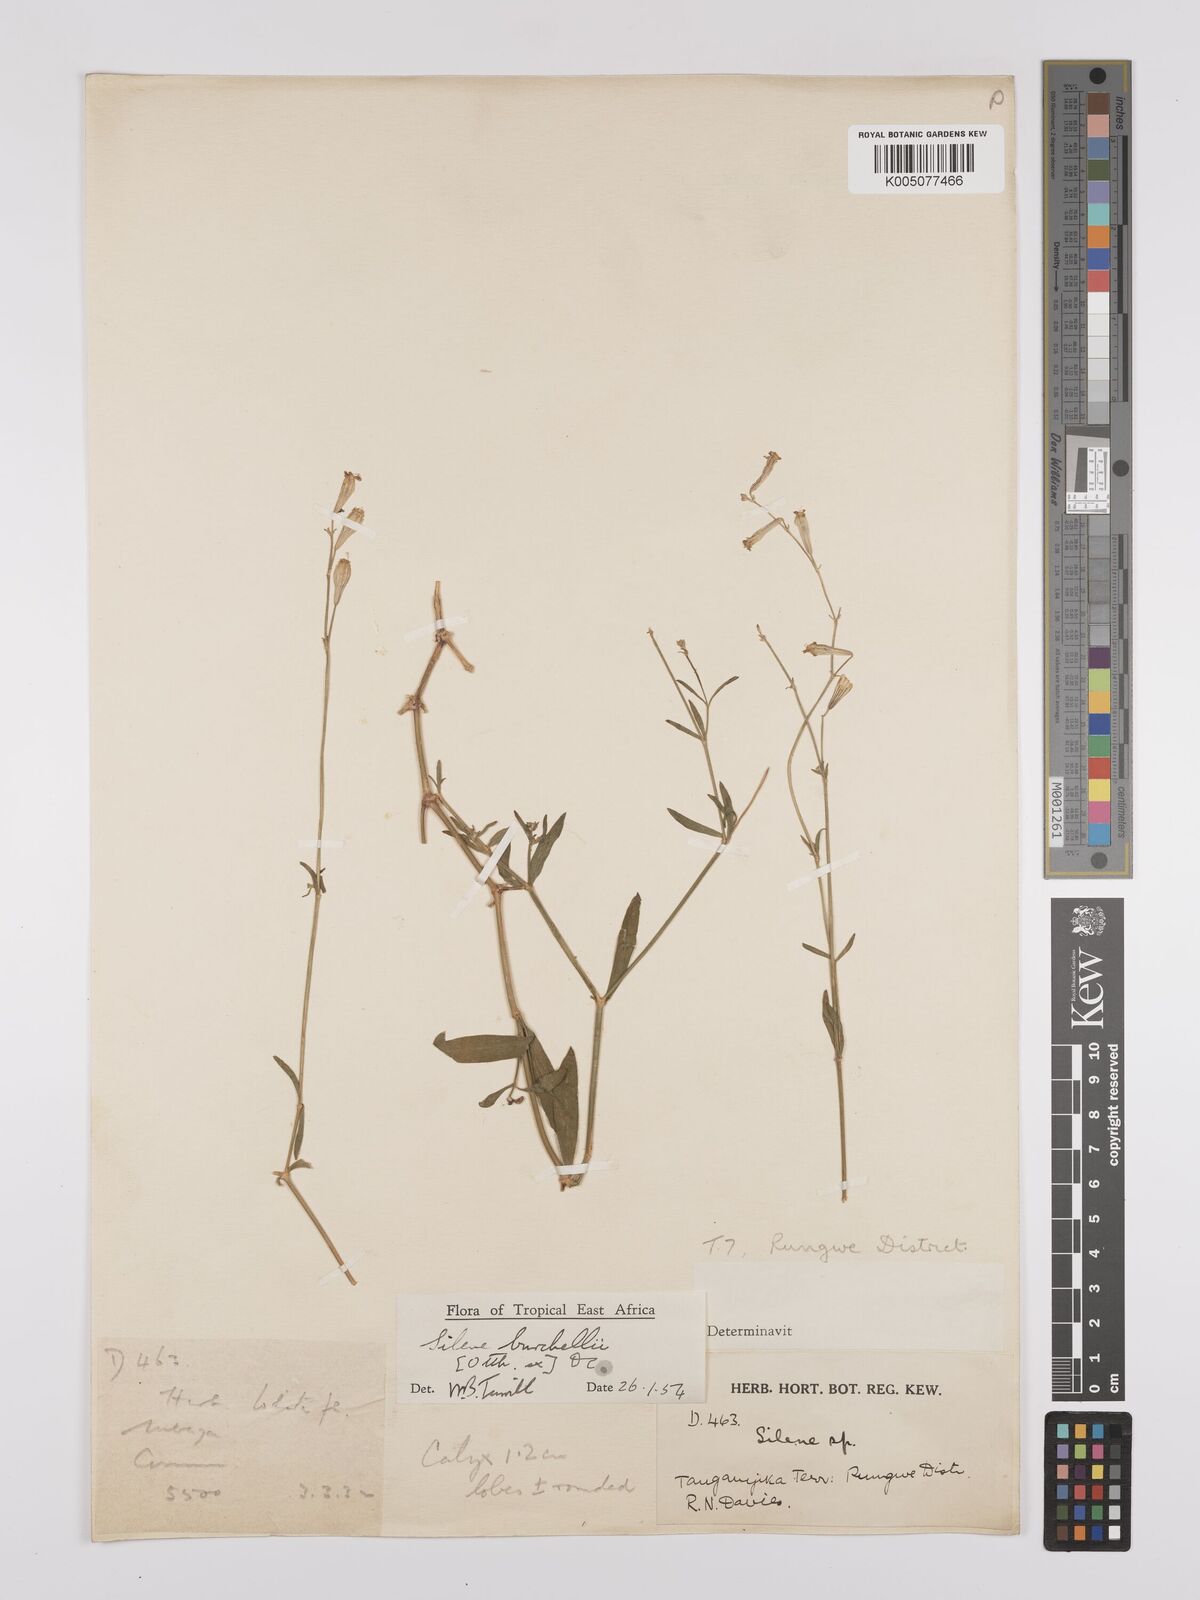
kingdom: Plantae
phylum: Tracheophyta
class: Magnoliopsida
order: Caryophyllales
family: Caryophyllaceae
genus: Silene
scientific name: Silene burchellii
